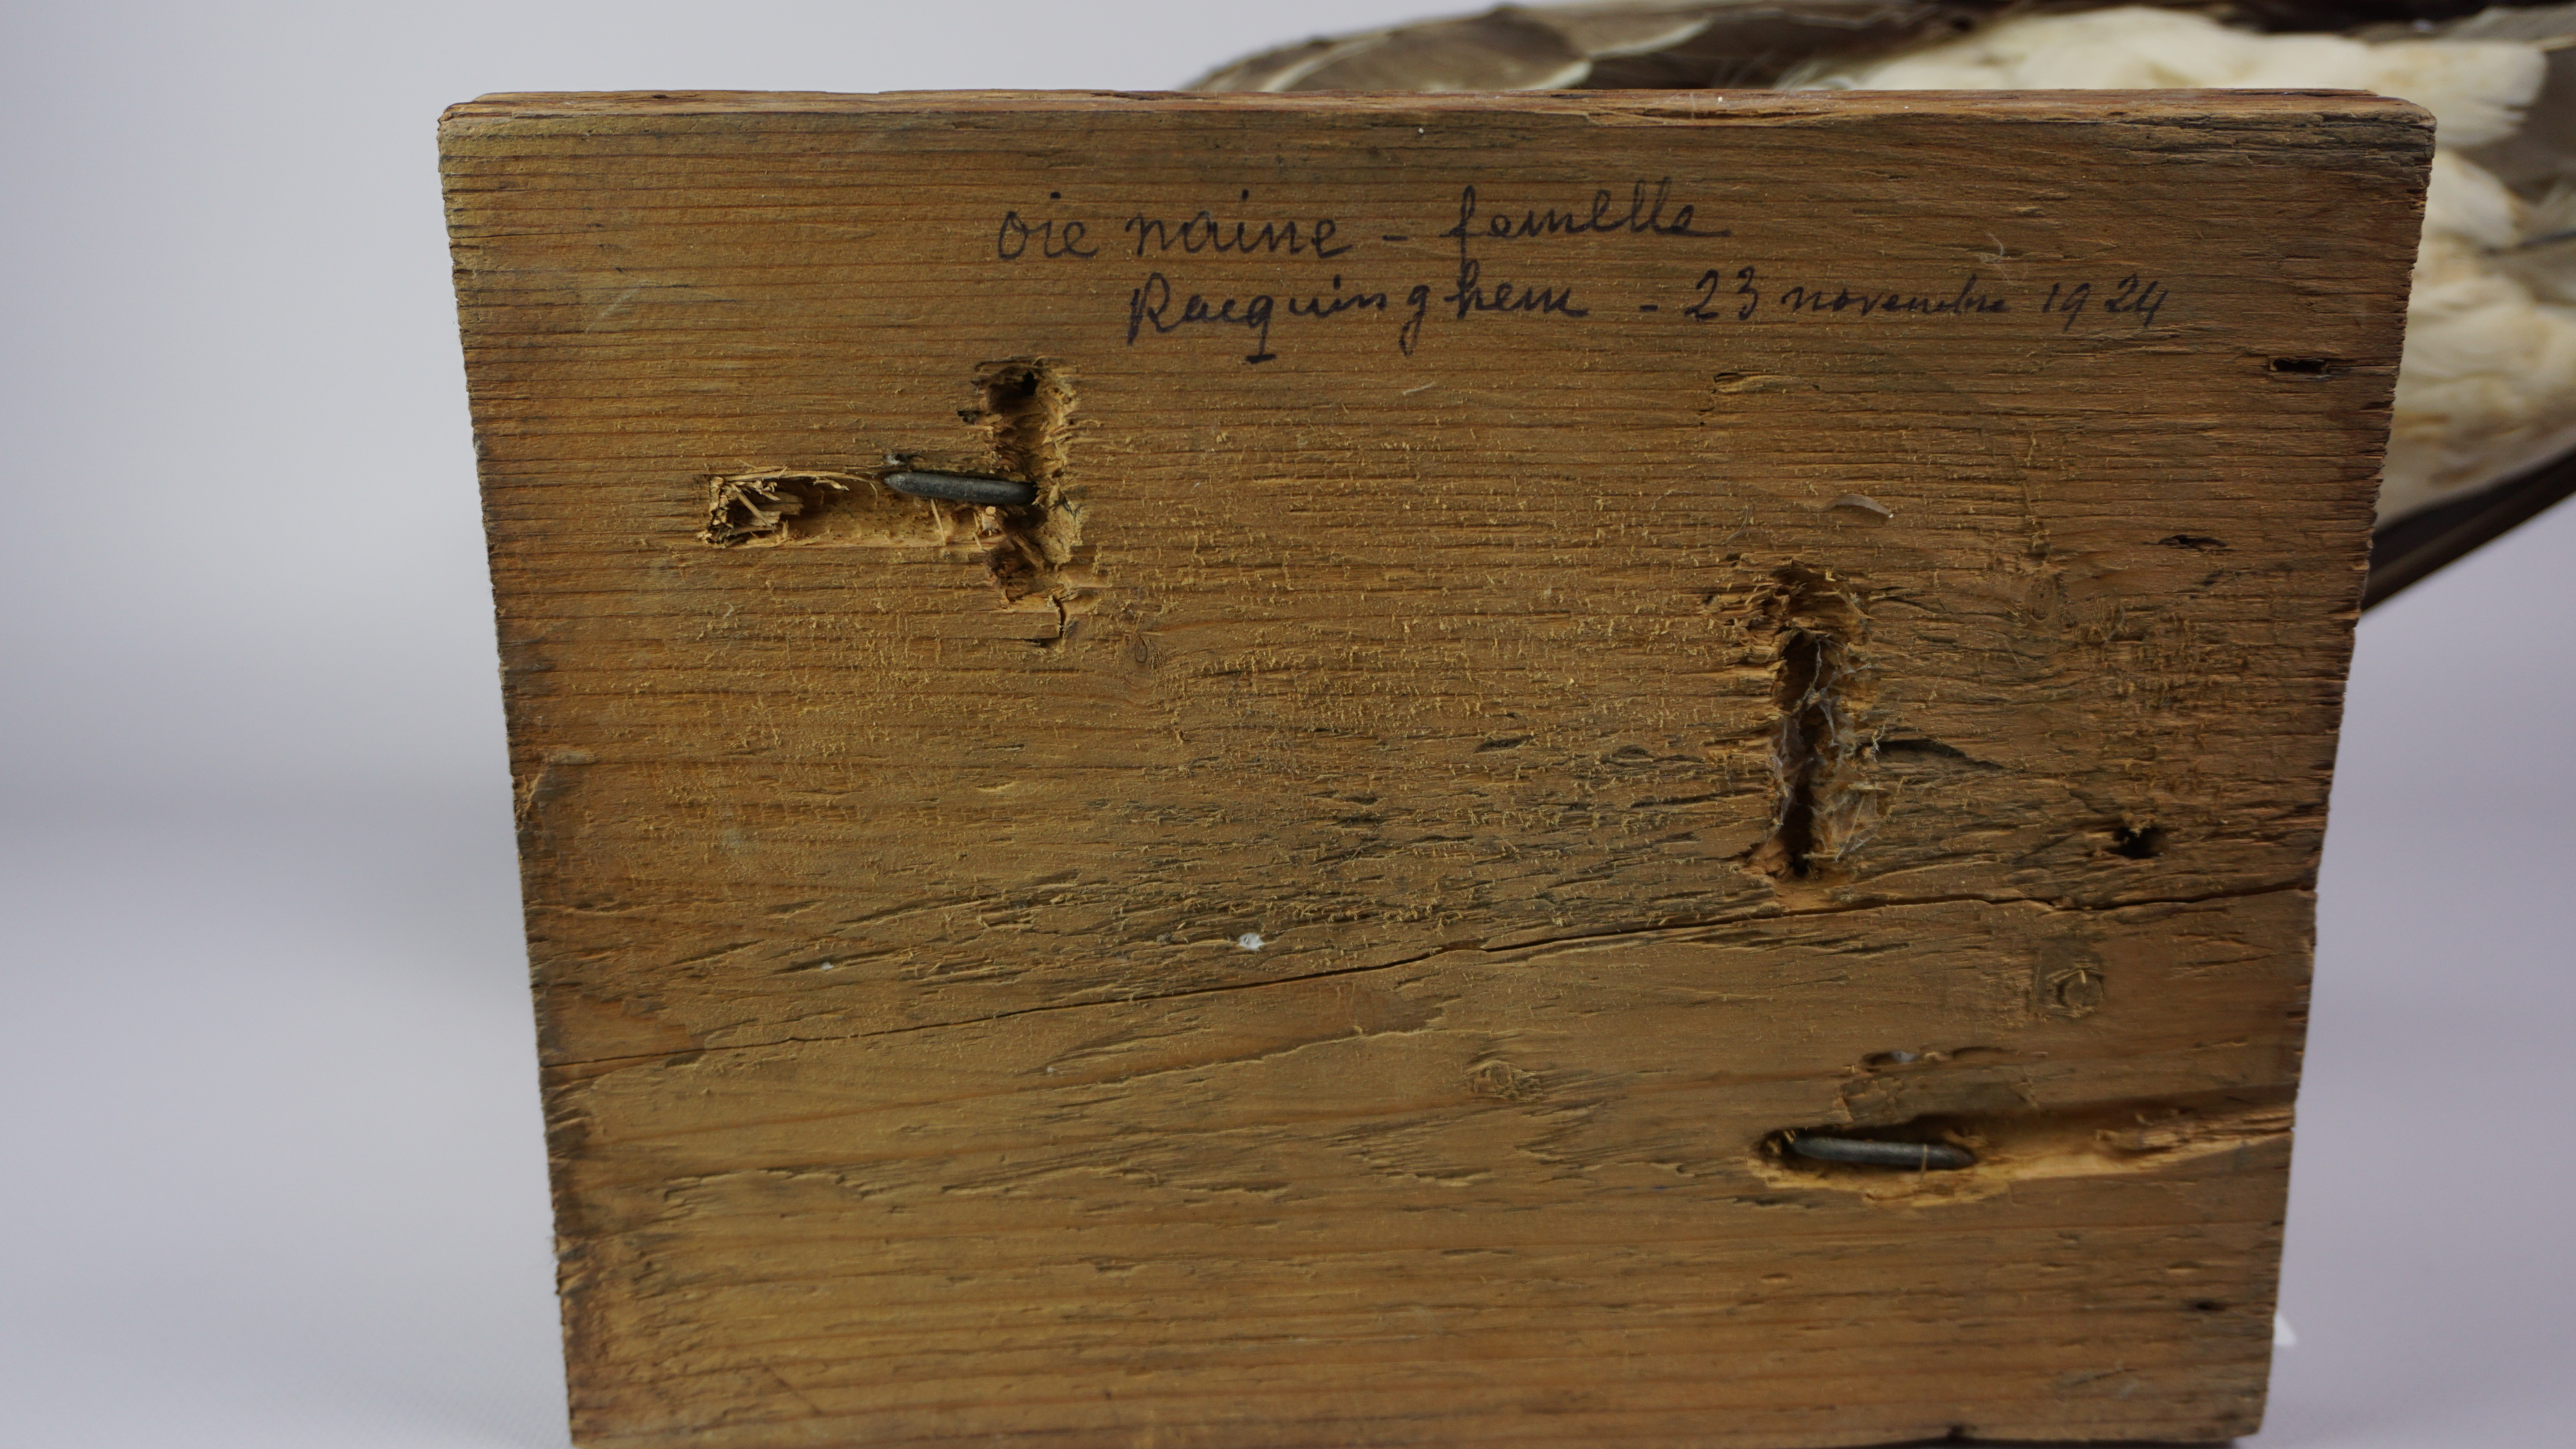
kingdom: Animalia
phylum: Chordata
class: Aves
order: Anseriformes
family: Anatidae
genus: Anser
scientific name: Anser albifrons
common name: Greater white-fronted goose
